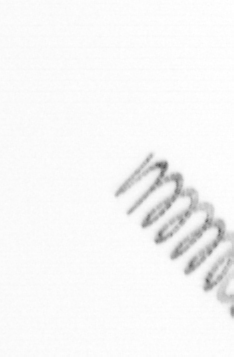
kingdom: Chromista
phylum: Ochrophyta
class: Bacillariophyceae
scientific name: Bacillariophyceae
